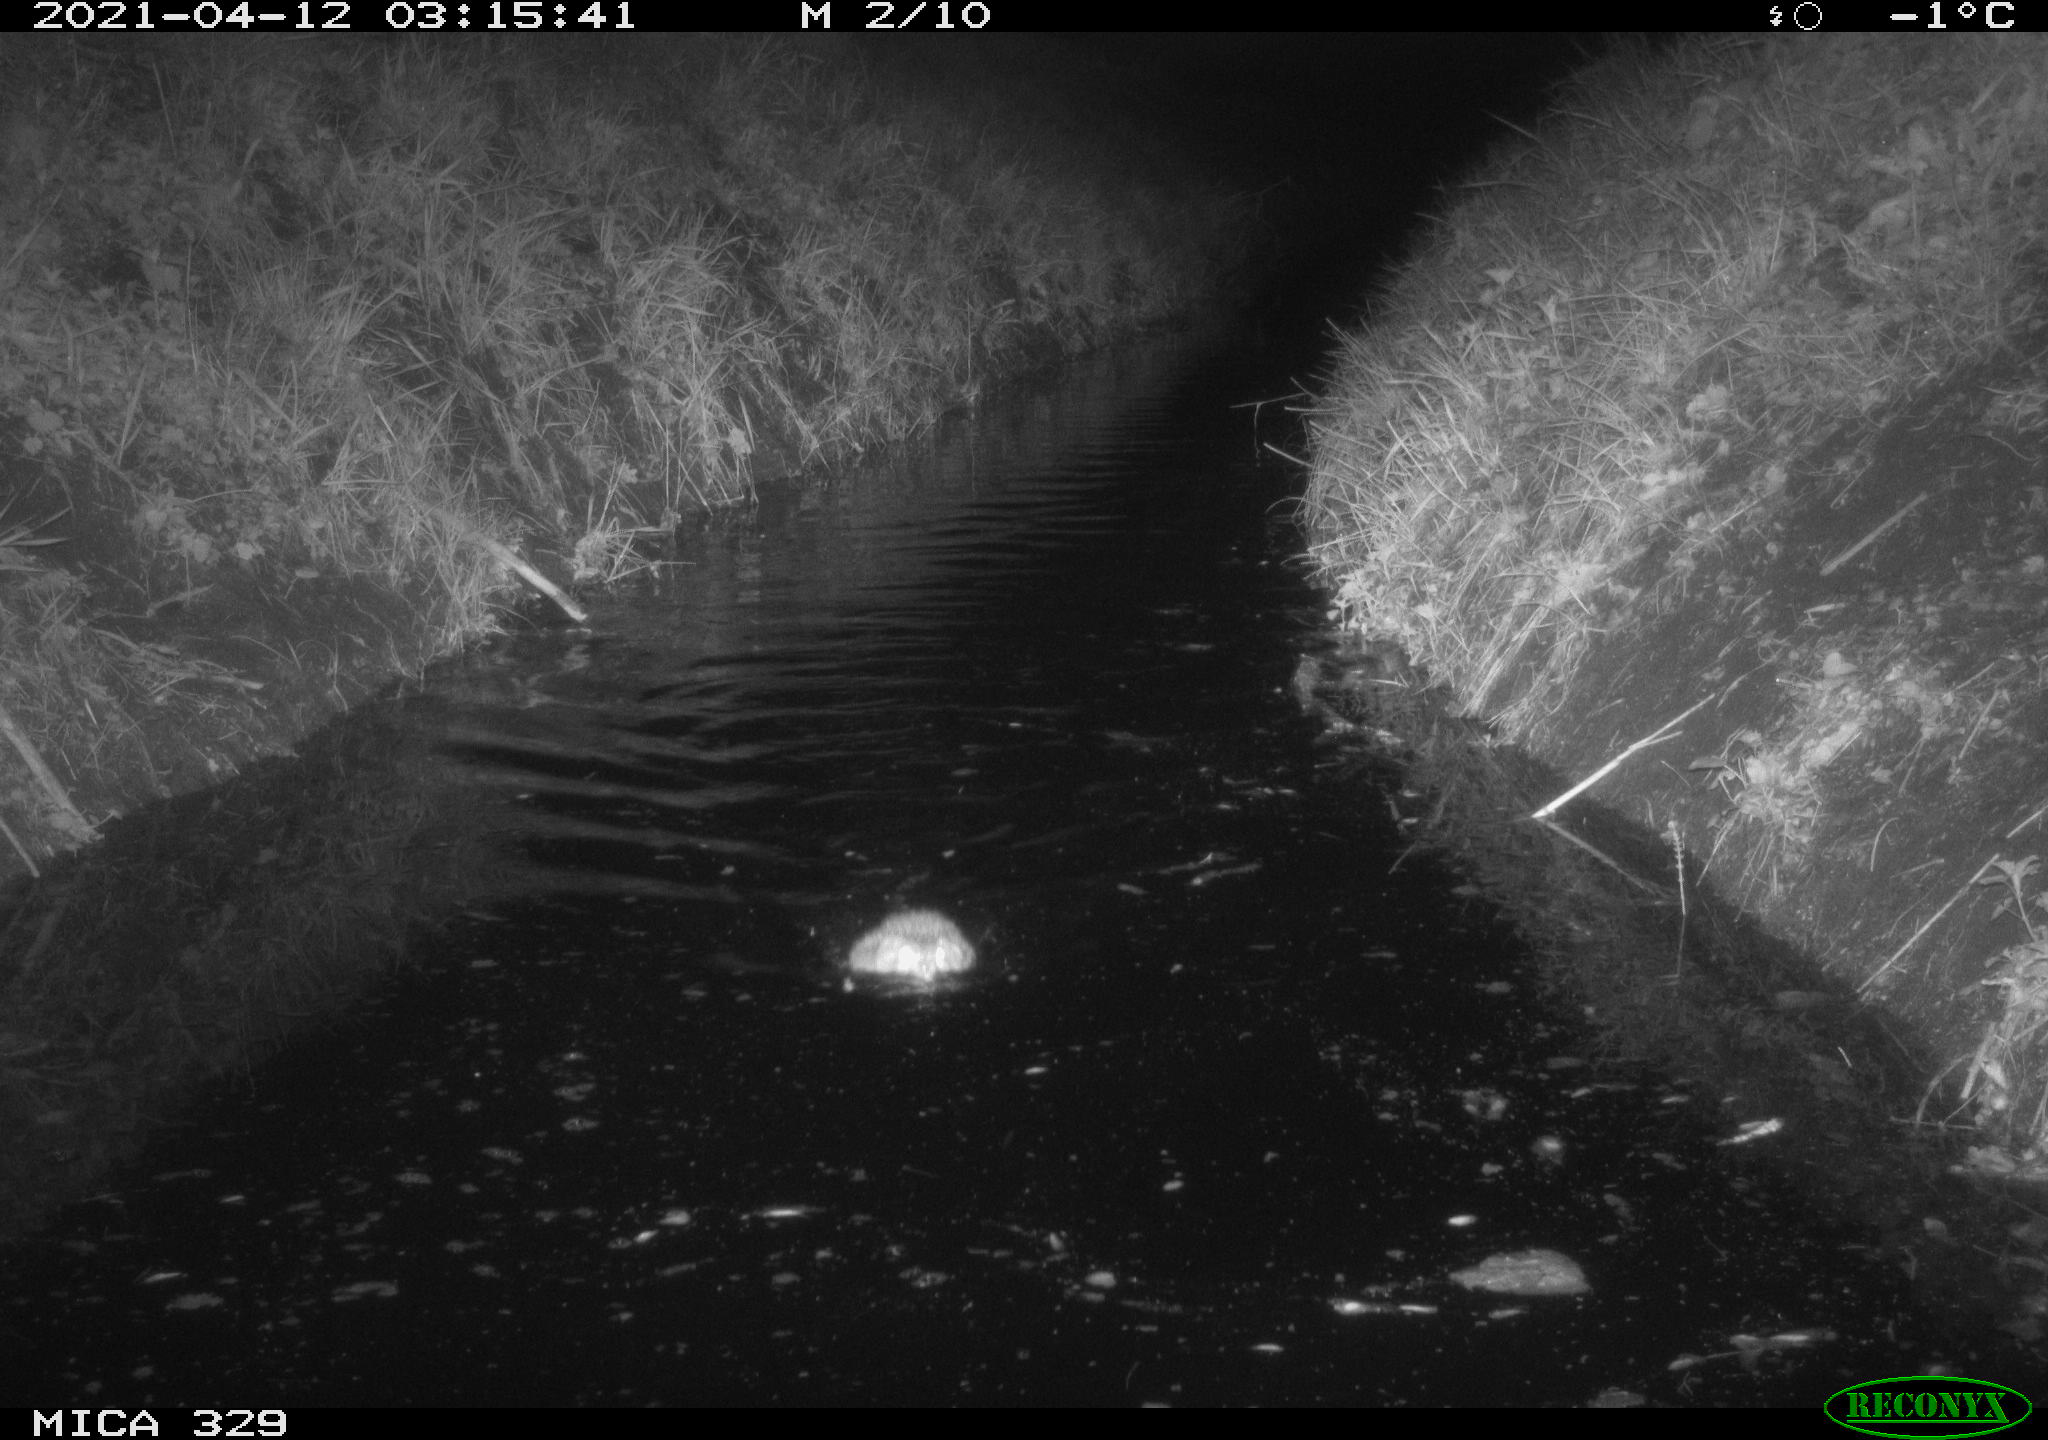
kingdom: Animalia
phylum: Chordata
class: Mammalia
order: Rodentia
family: Cricetidae
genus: Ondatra
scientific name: Ondatra zibethicus
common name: Muskrat
